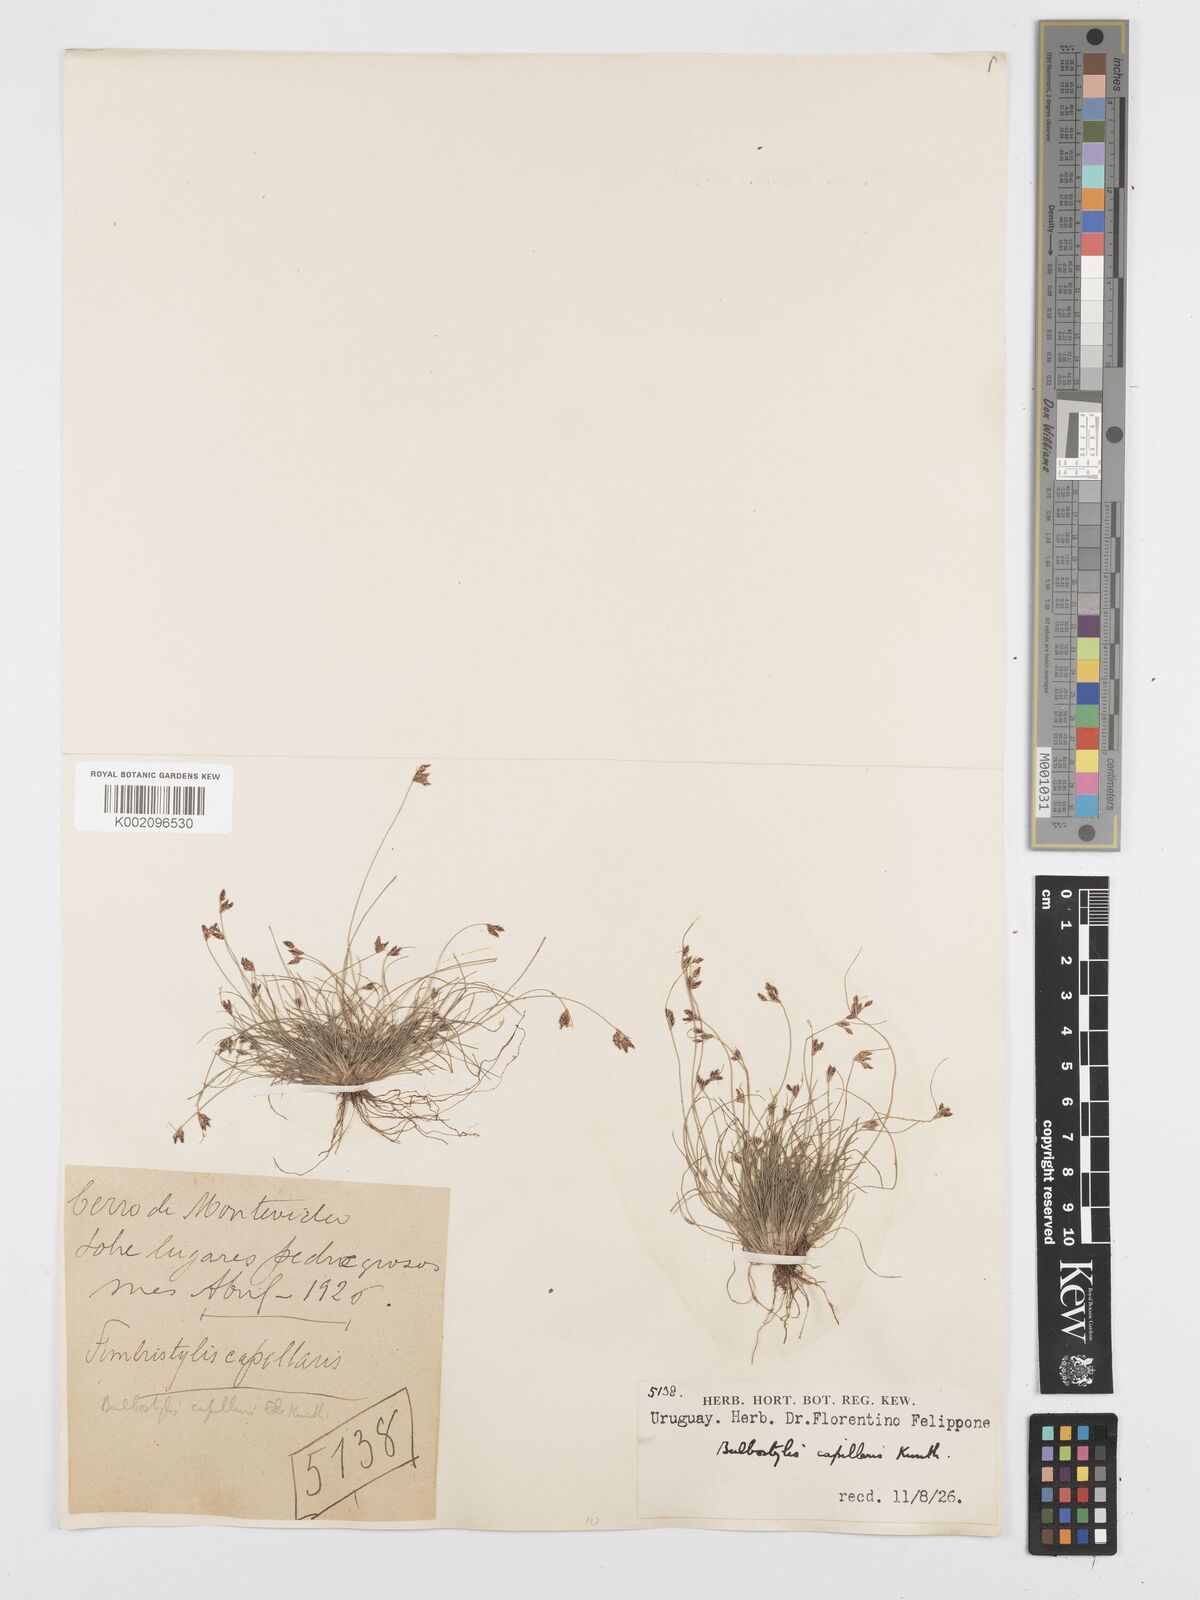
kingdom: Plantae
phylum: Tracheophyta
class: Liliopsida
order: Poales
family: Cyperaceae
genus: Bulbostylis
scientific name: Bulbostylis capillaris
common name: Densetuft hairsedge
